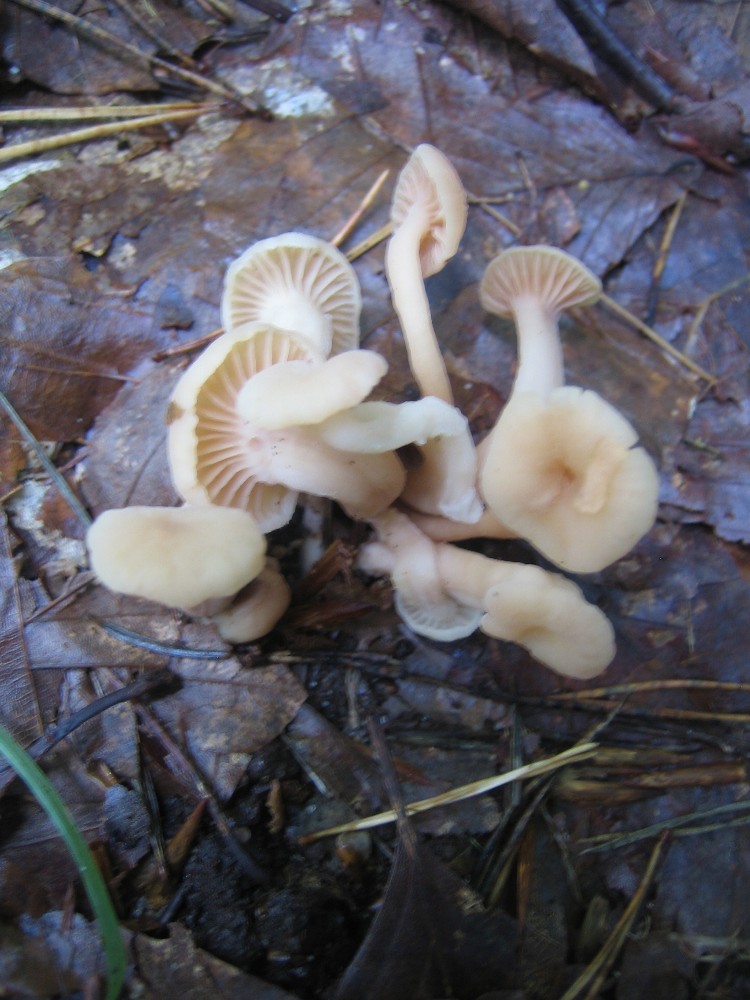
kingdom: Fungi
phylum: Basidiomycota
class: Agaricomycetes
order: Agaricales
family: Hydnangiaceae
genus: Laccaria
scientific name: Laccaria laccata
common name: rød ametysthat
